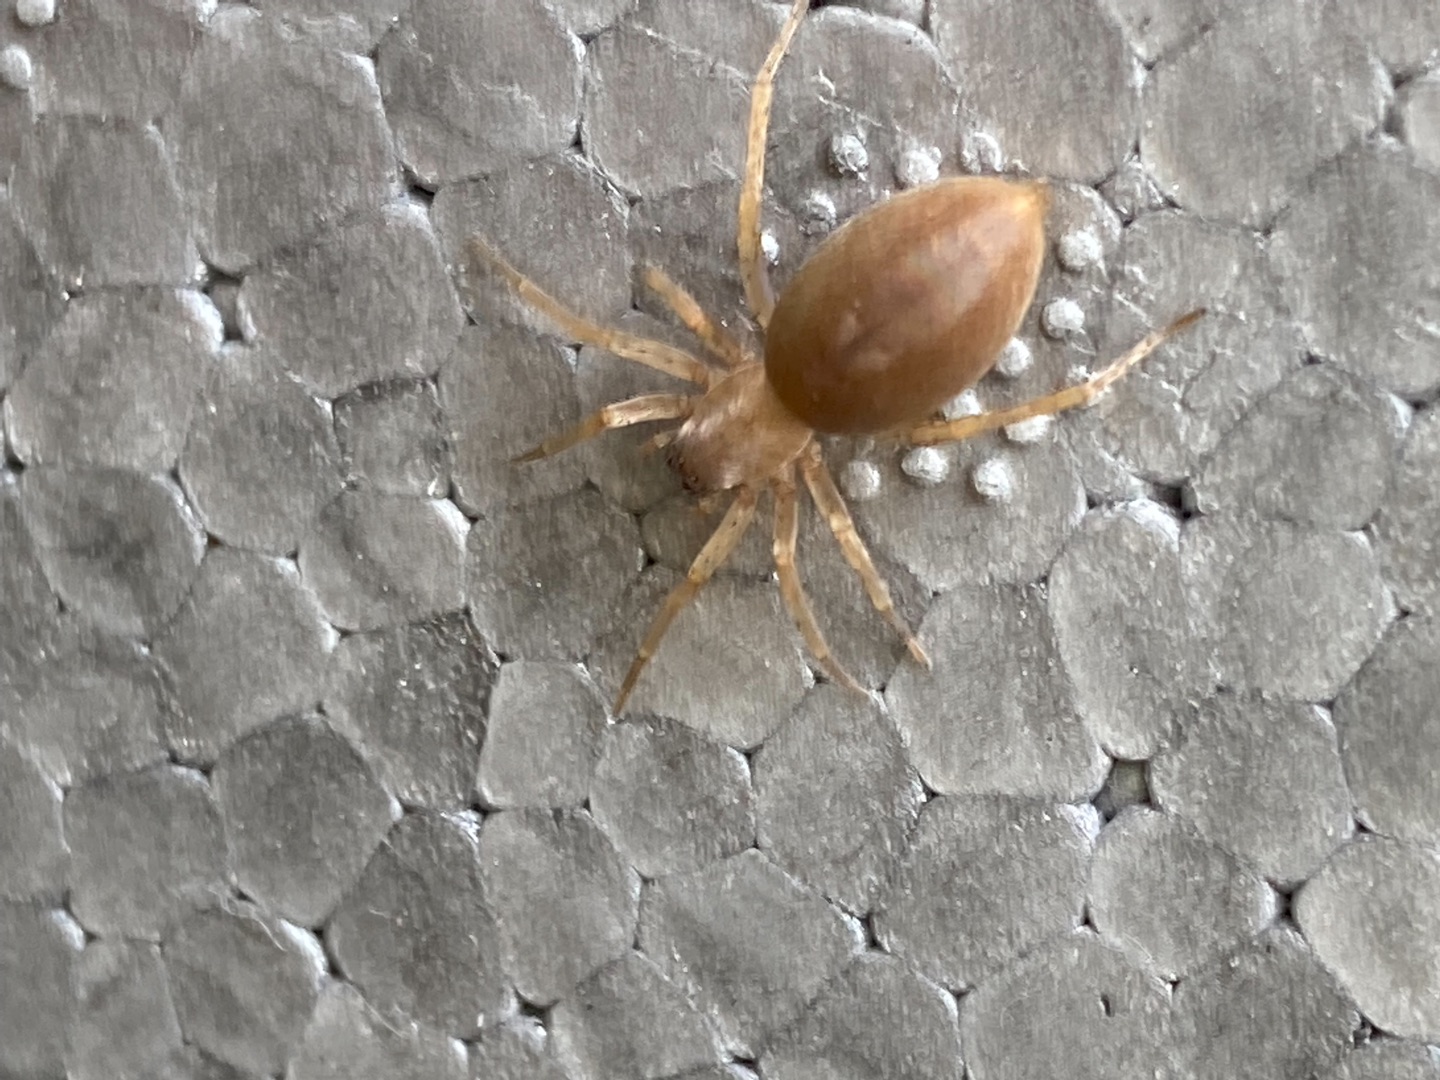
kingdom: Animalia
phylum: Arthropoda
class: Arachnida
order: Araneae
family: Clubionidae
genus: Clubiona
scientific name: Clubiona
